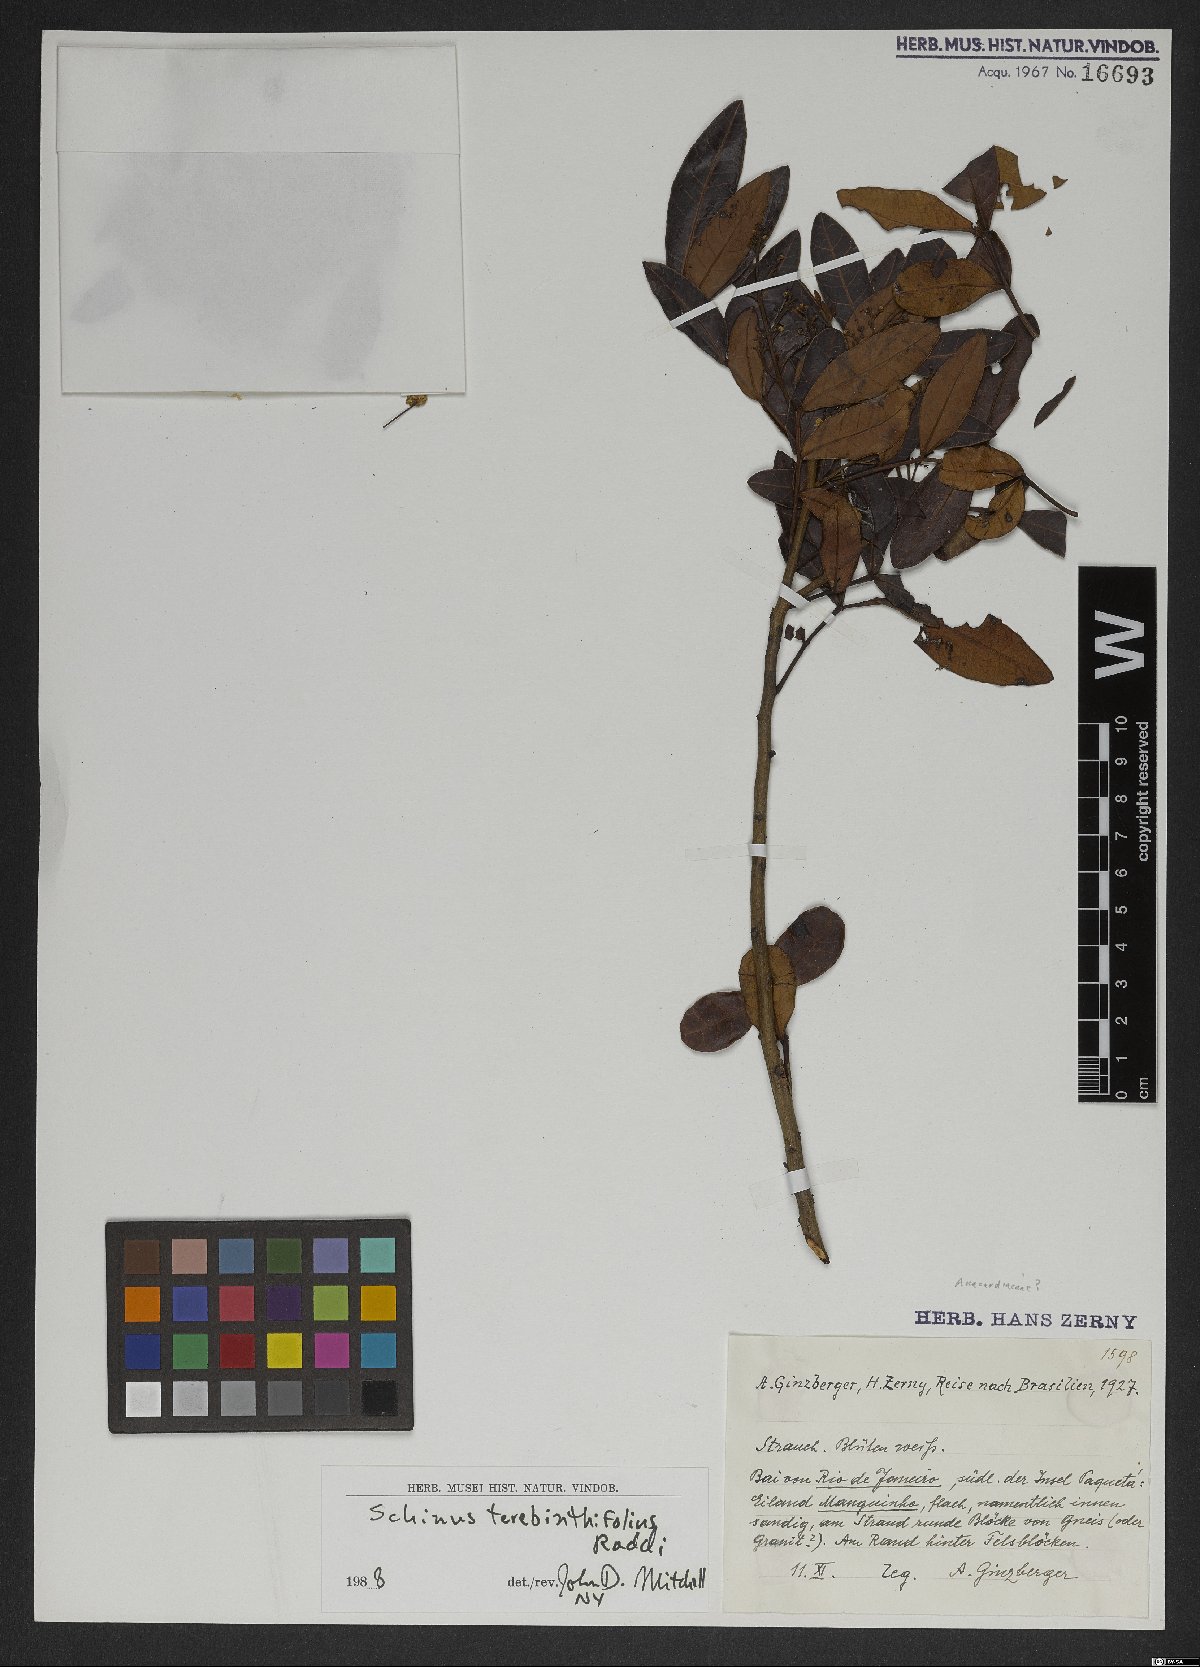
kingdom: Plantae
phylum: Tracheophyta
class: Magnoliopsida
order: Sapindales
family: Anacardiaceae
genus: Schinus
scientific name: Schinus terebinthifolia
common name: Brazilian peppertree
